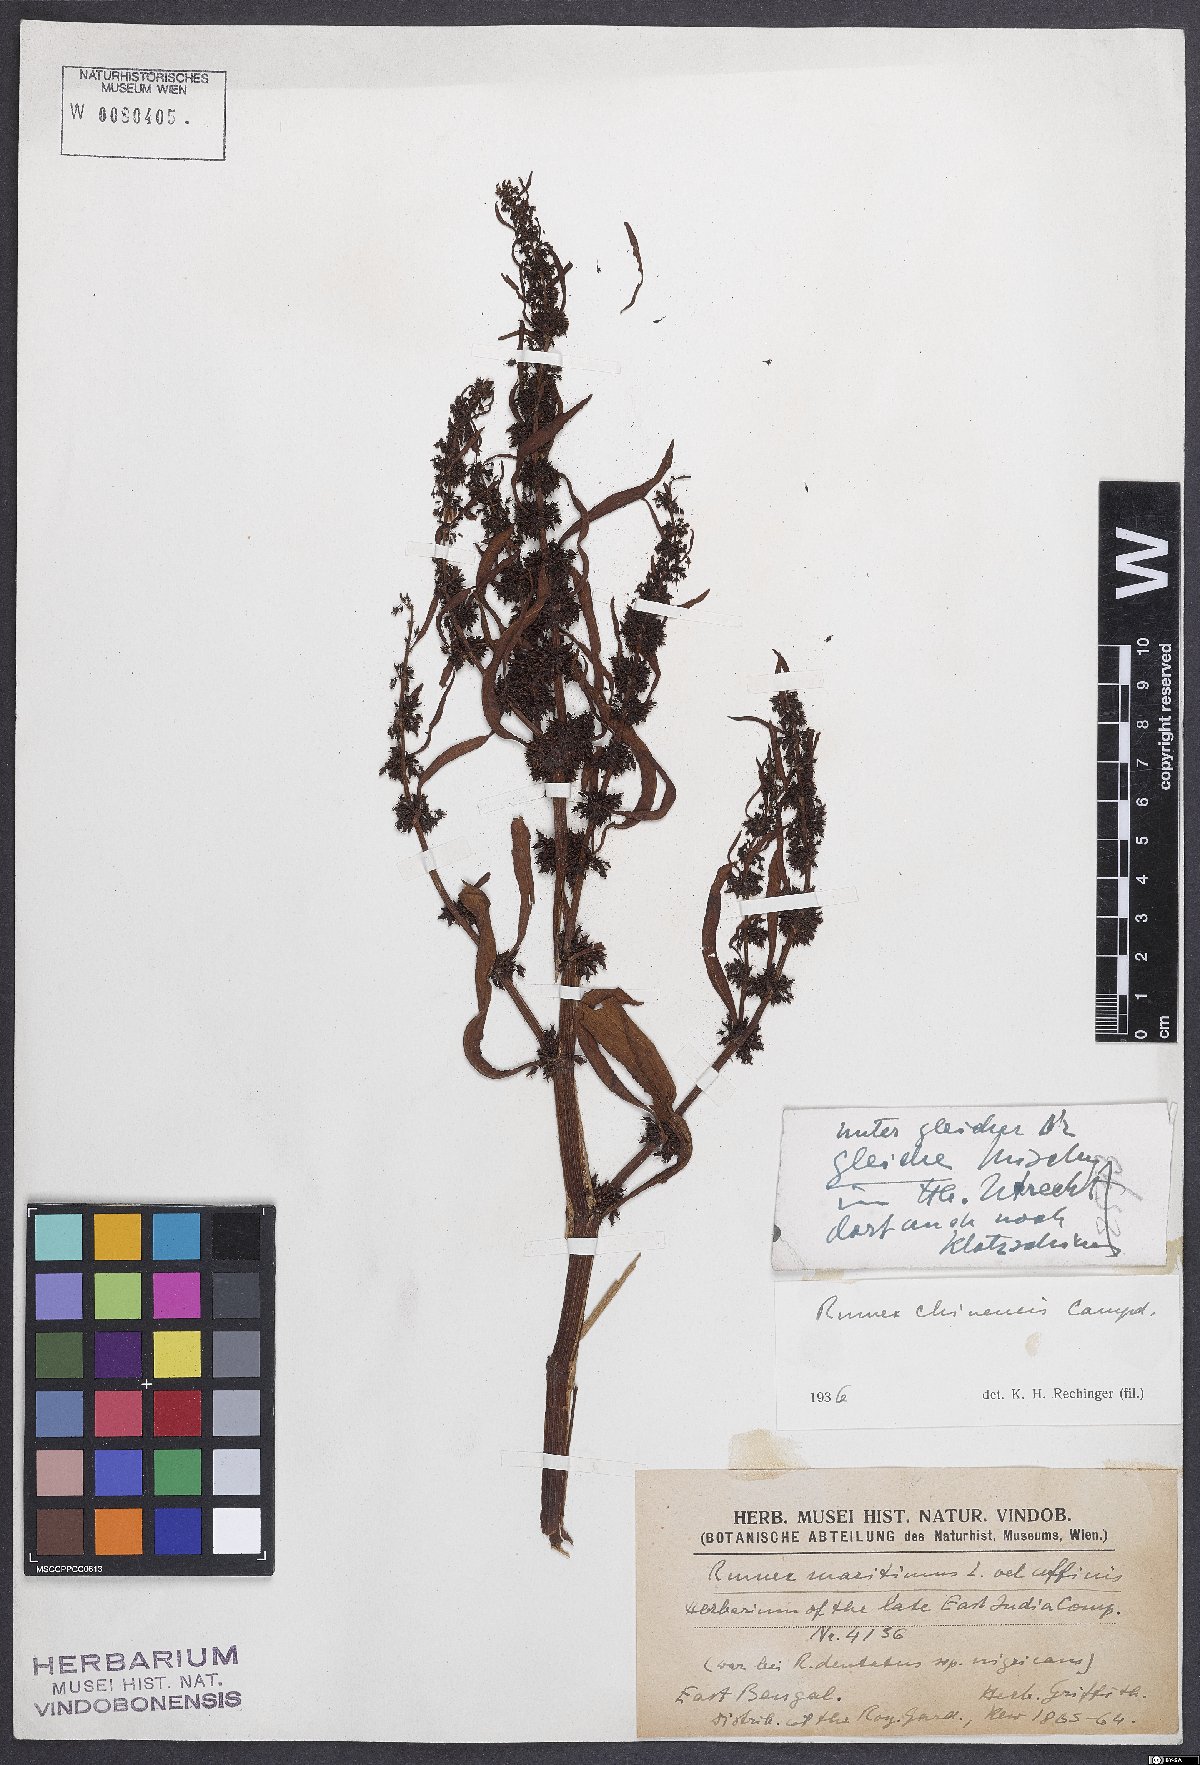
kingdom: Plantae
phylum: Tracheophyta
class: Magnoliopsida
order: Caryophyllales
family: Polygonaceae
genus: Rumex
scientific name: Rumex
